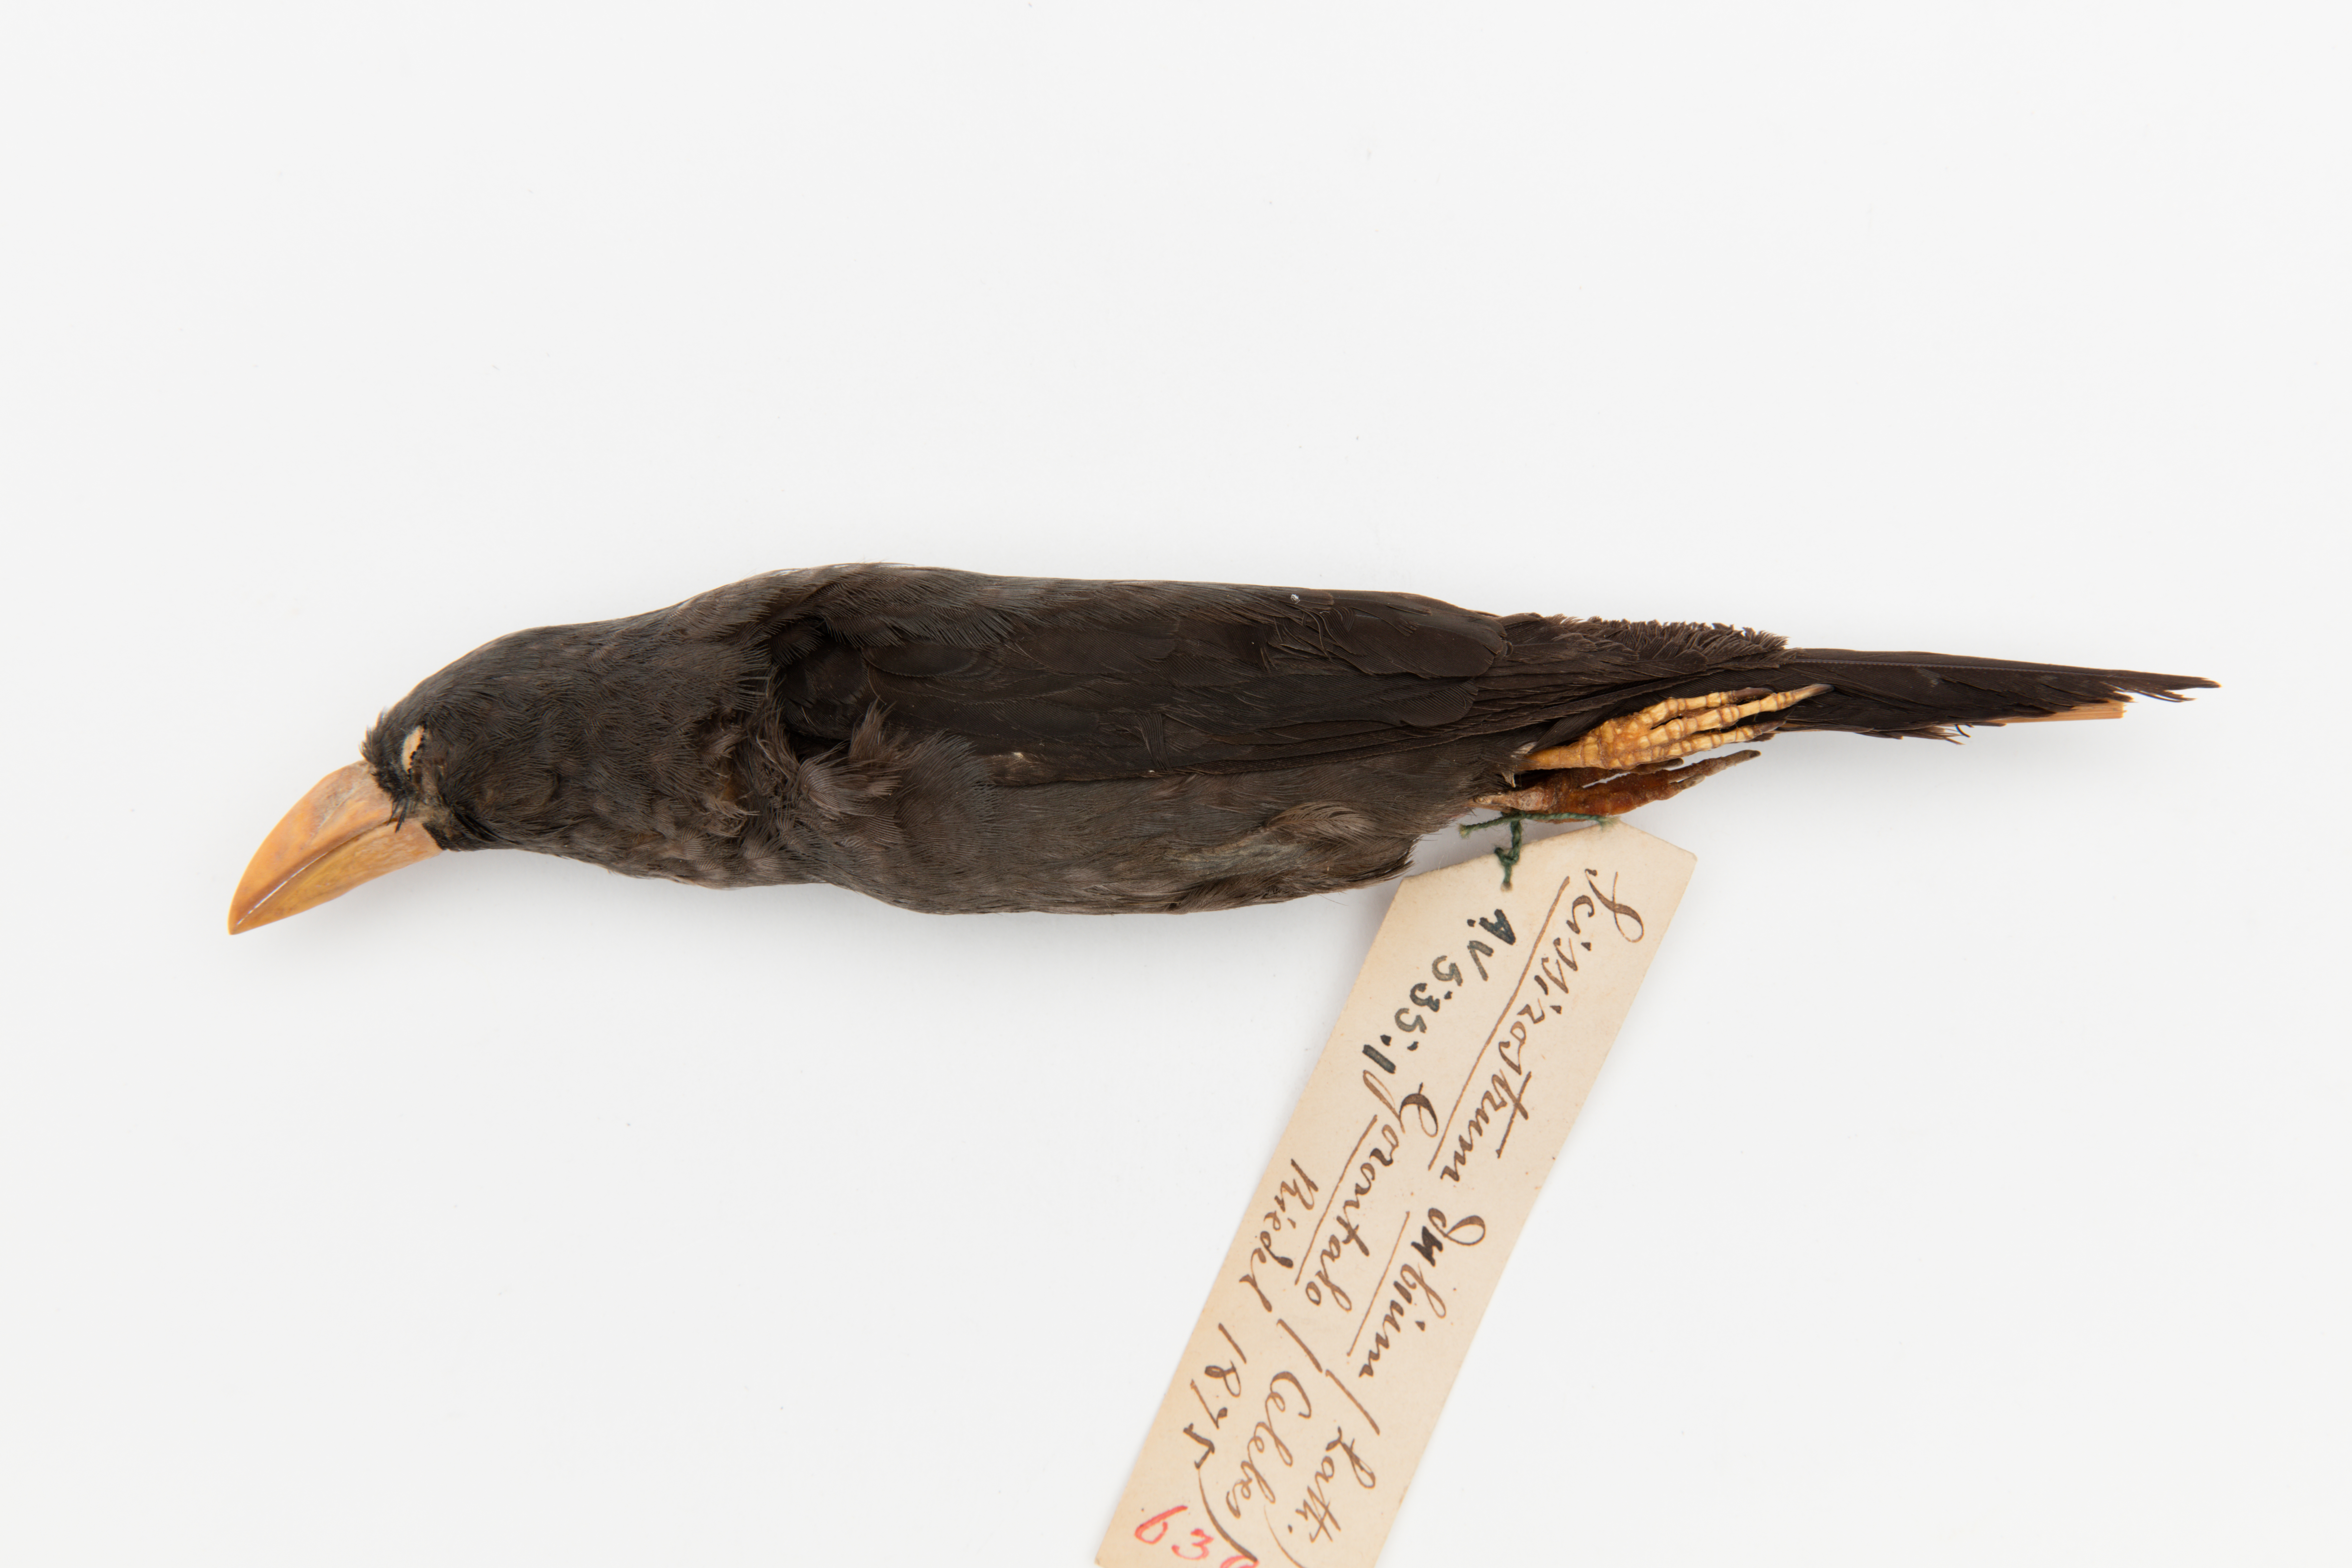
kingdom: Animalia
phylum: Chordata
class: Aves
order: Passeriformes
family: Sturnidae
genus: Scissirostrum
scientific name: Scissirostrum dubium
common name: Grosbeak starling
